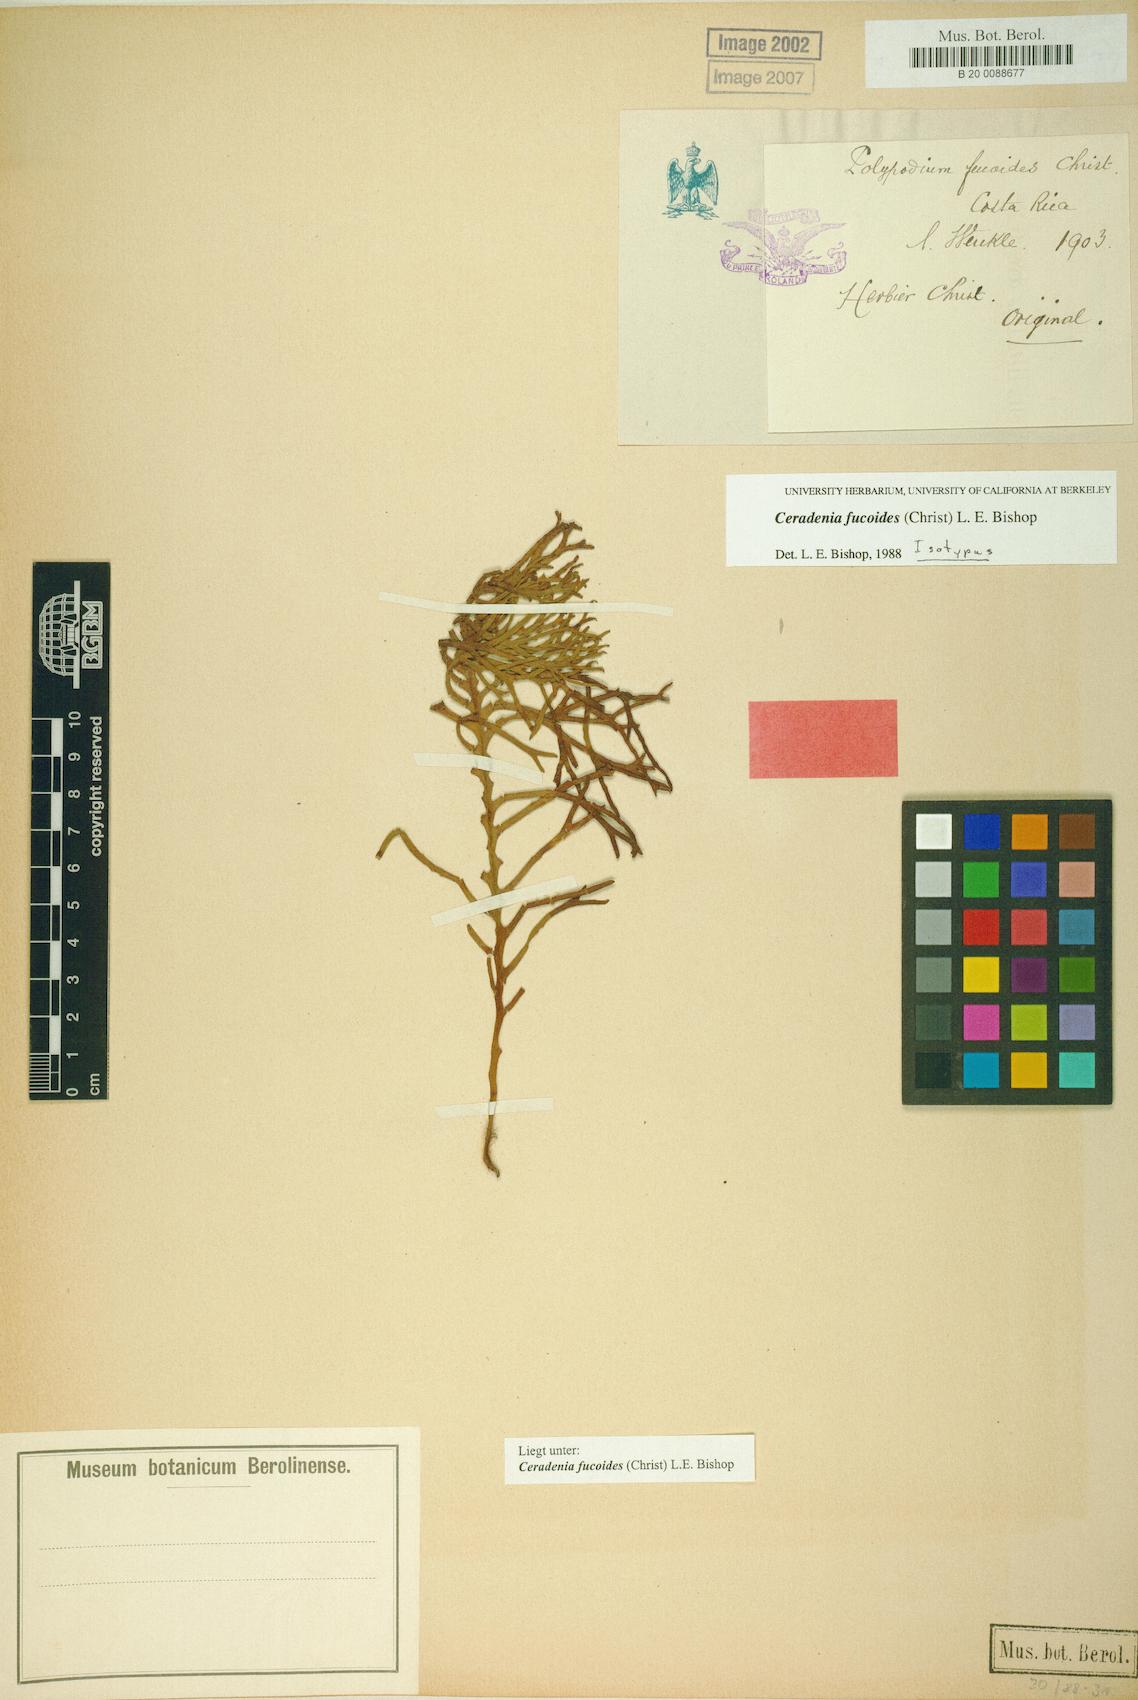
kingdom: Plantae
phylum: Tracheophyta
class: Polypodiopsida
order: Polypodiales
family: Polypodiaceae
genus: Ceradenia
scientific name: Ceradenia fucoides
